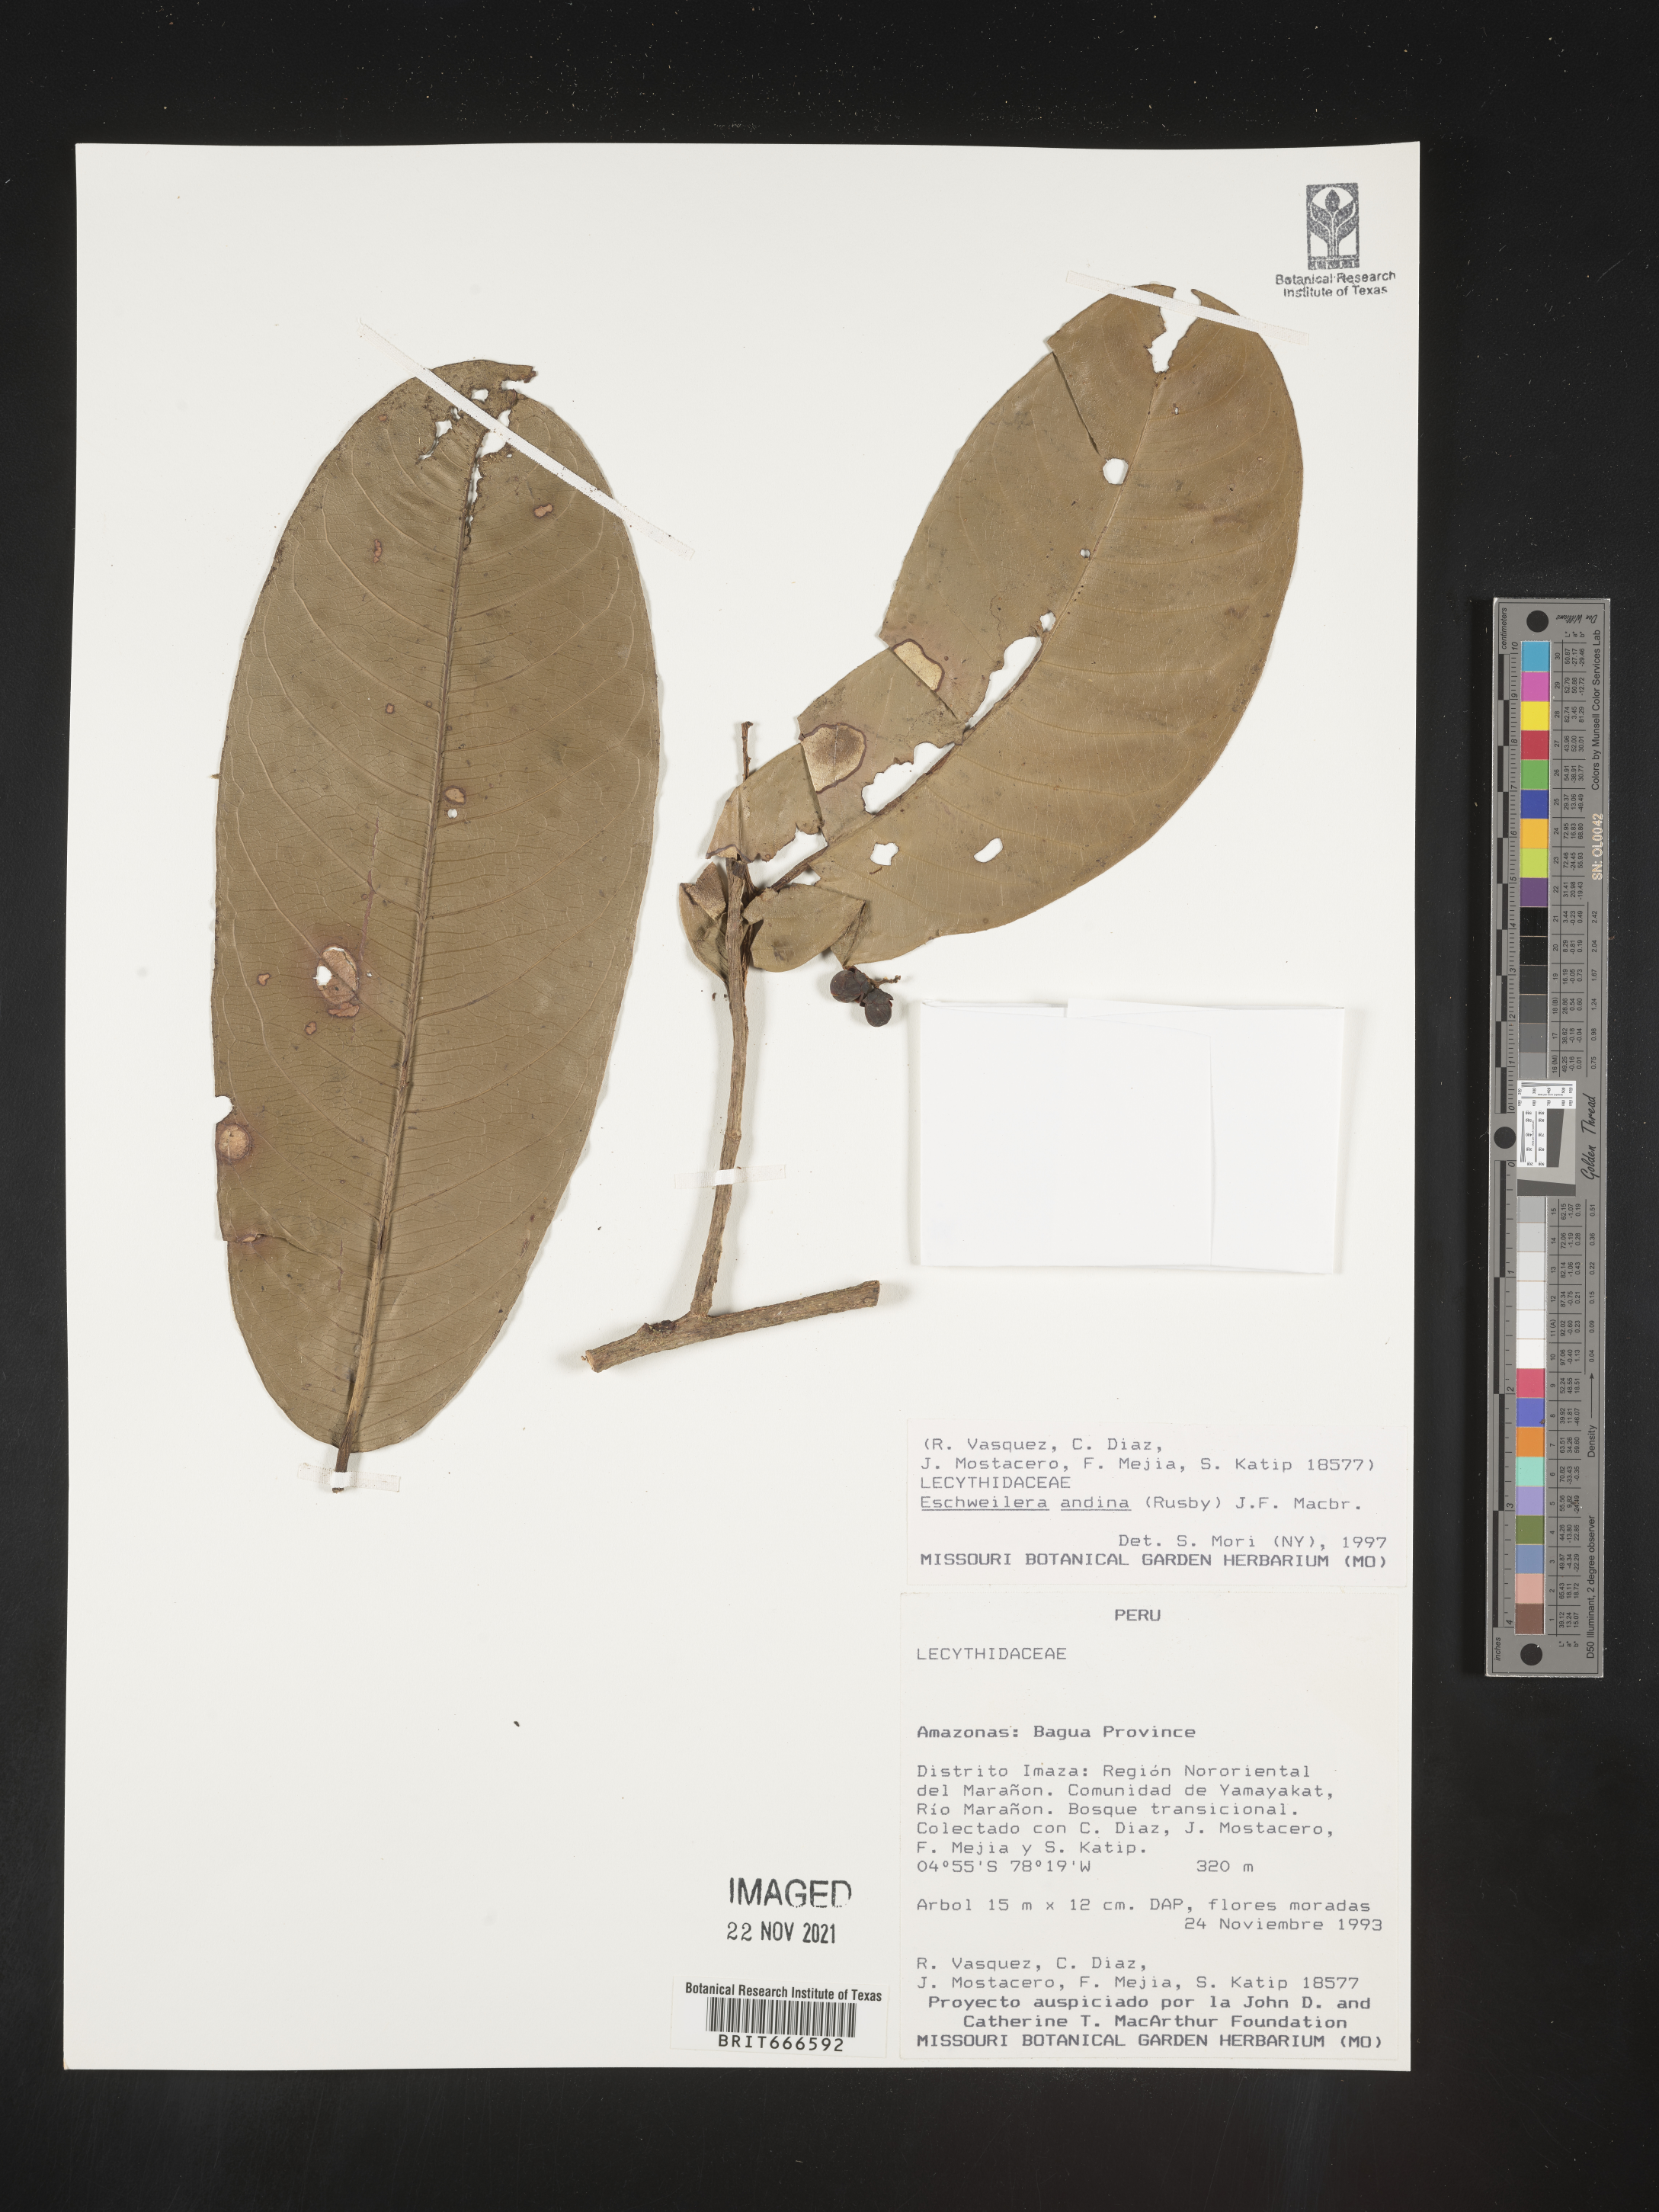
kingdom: Plantae
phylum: Tracheophyta
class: Magnoliopsida
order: Ericales
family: Lecythidaceae
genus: Eschweilera
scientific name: Eschweilera
